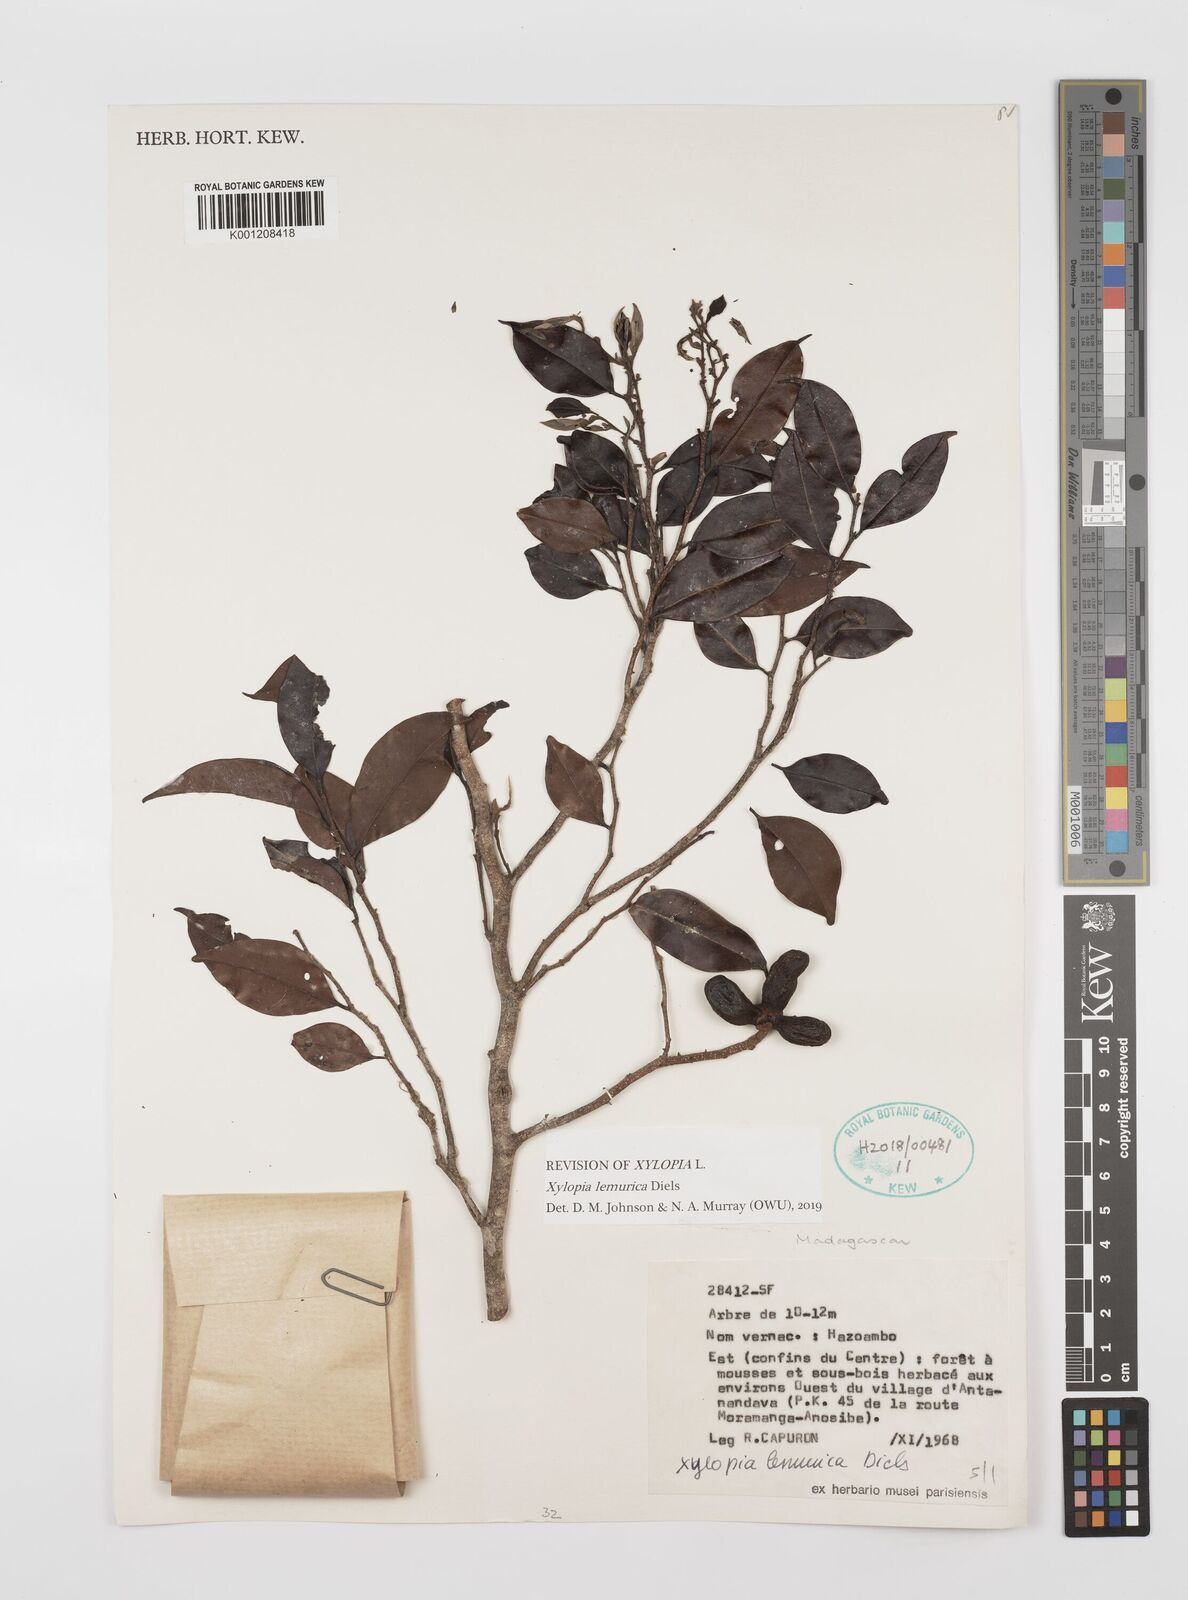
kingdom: Plantae
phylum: Tracheophyta
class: Magnoliopsida
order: Magnoliales
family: Annonaceae
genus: Xylopia
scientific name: Xylopia lemurica
